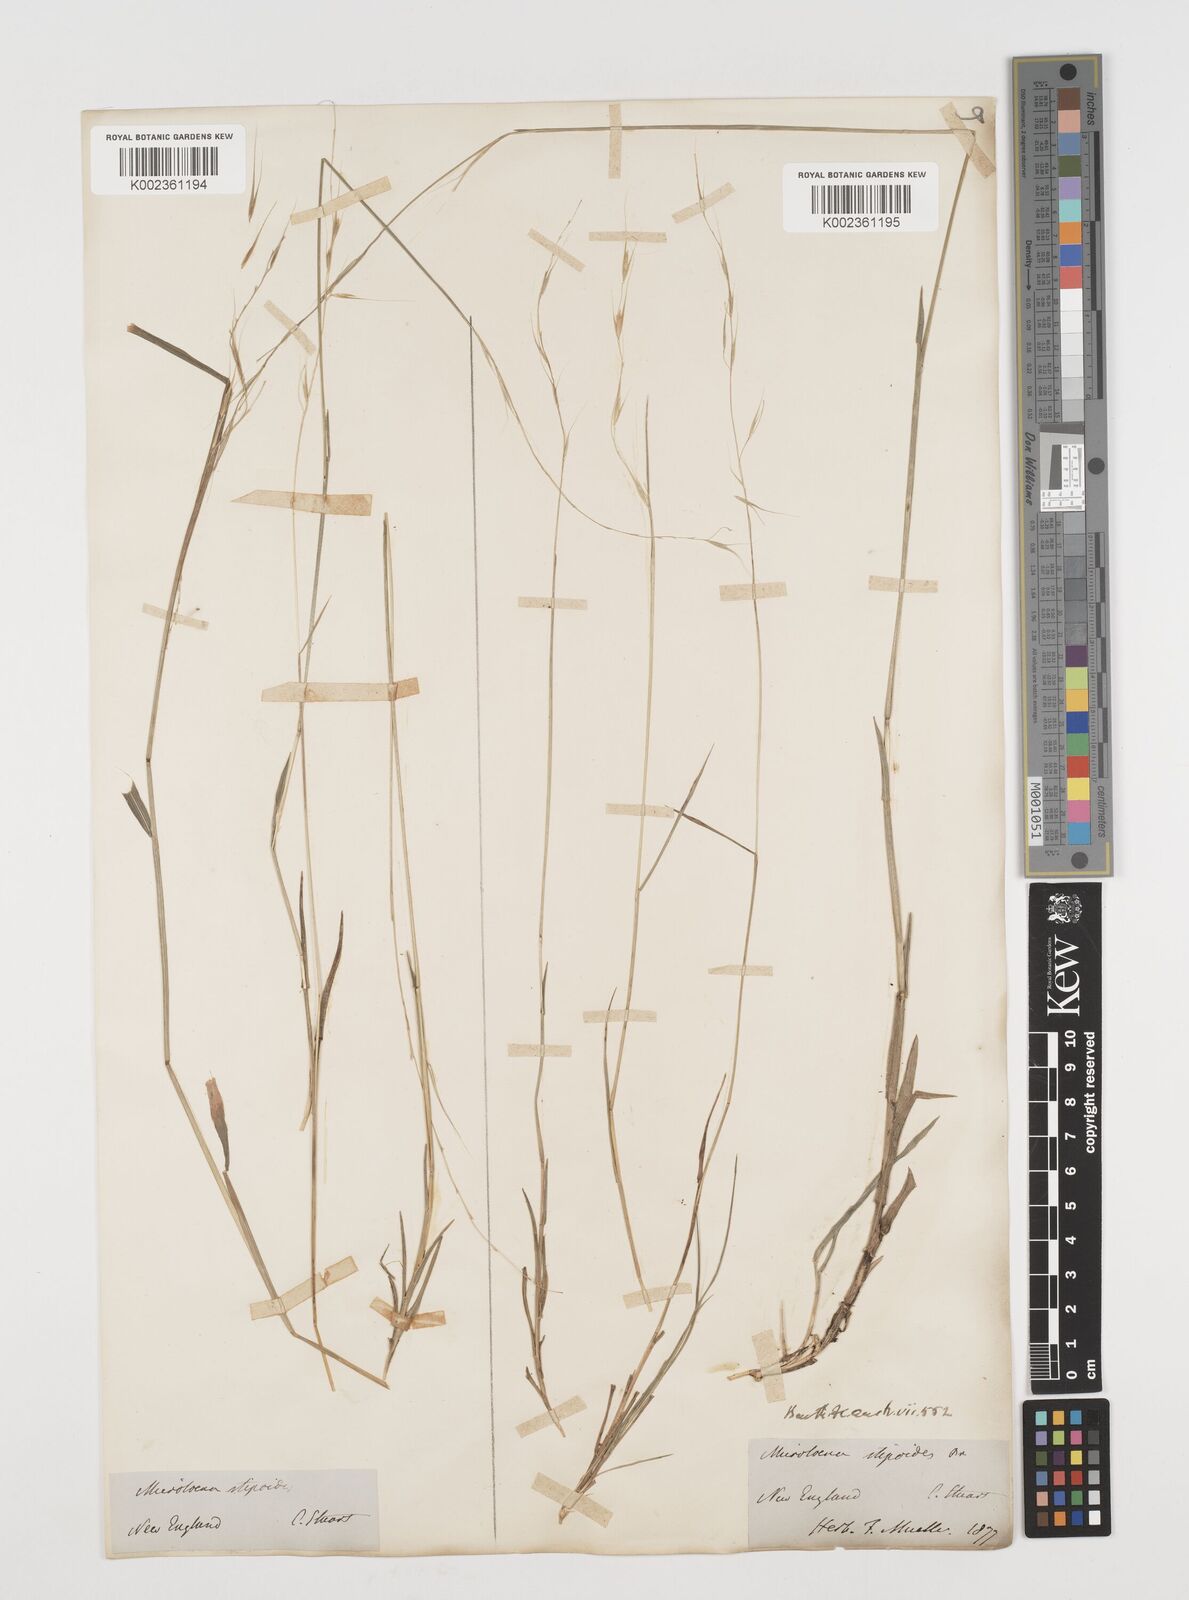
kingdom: Plantae
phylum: Tracheophyta
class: Liliopsida
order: Poales
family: Poaceae
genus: Microlaena
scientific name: Microlaena stipoides
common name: Meadow ricegrass
